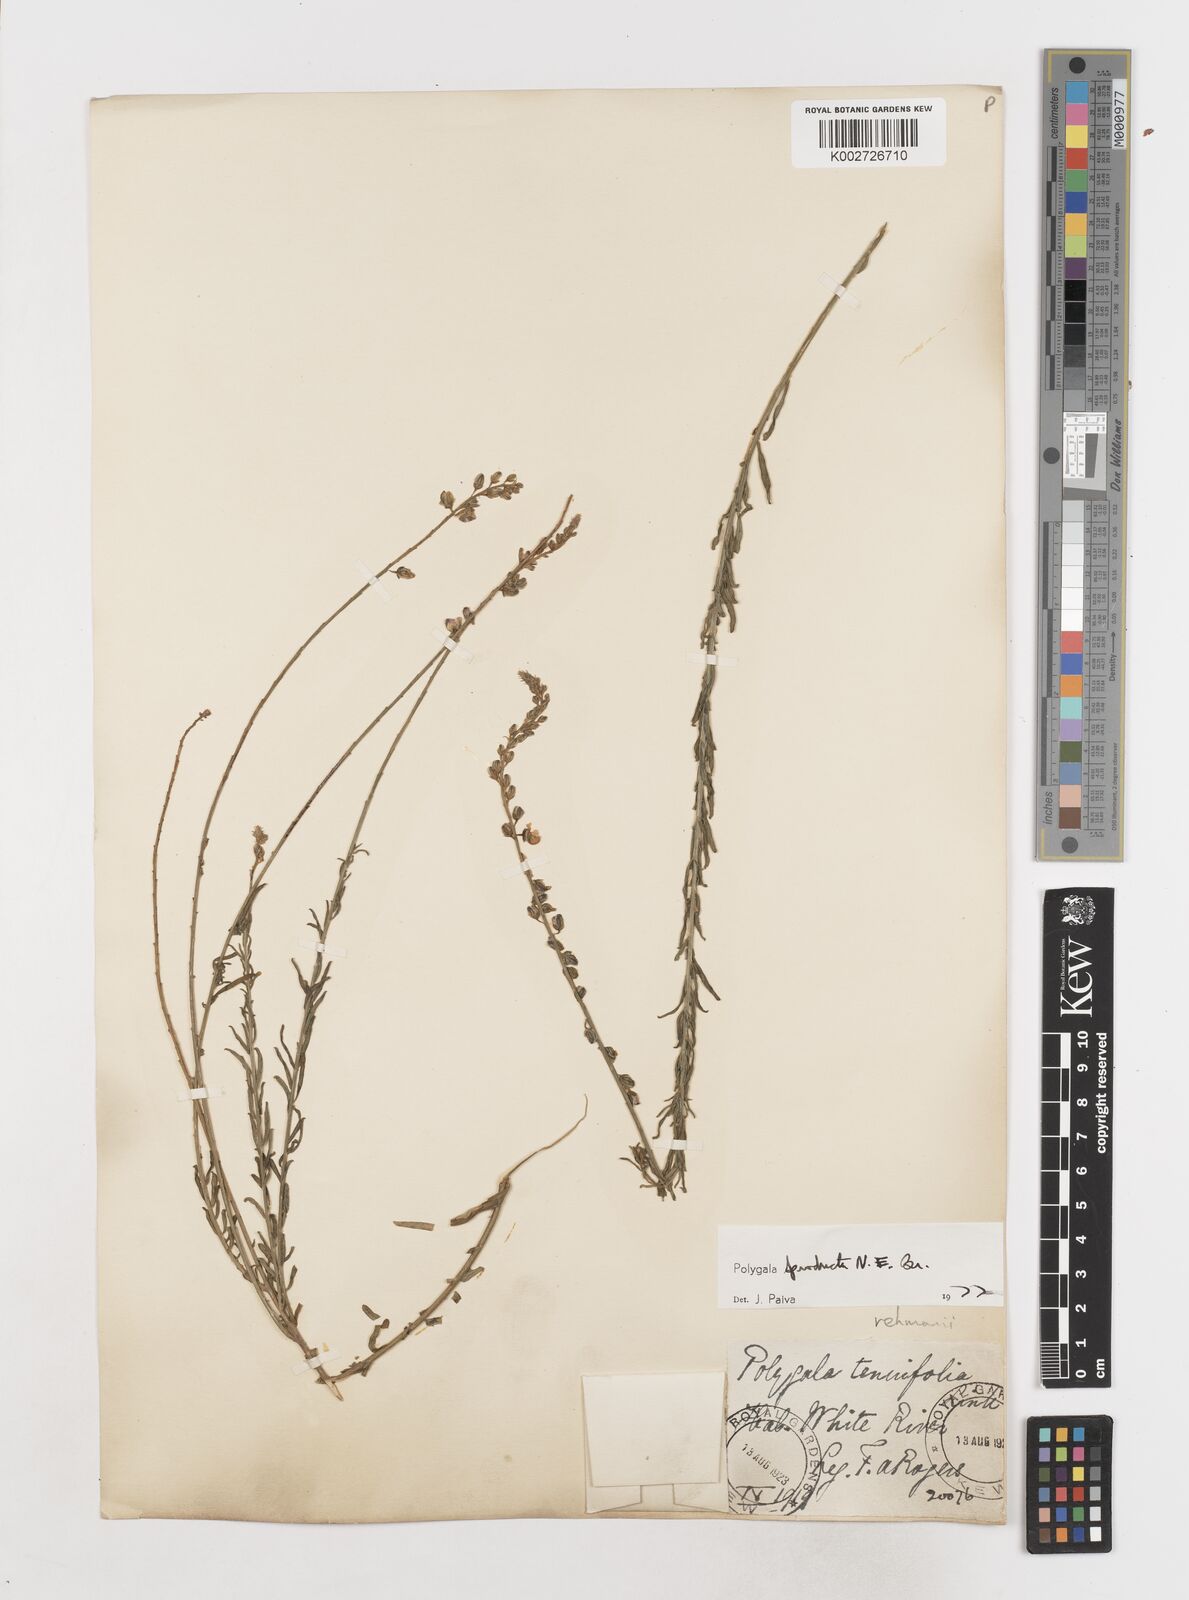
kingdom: Plantae
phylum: Tracheophyta
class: Magnoliopsida
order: Fabales
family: Polygalaceae
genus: Polygala
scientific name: Polygala producta
